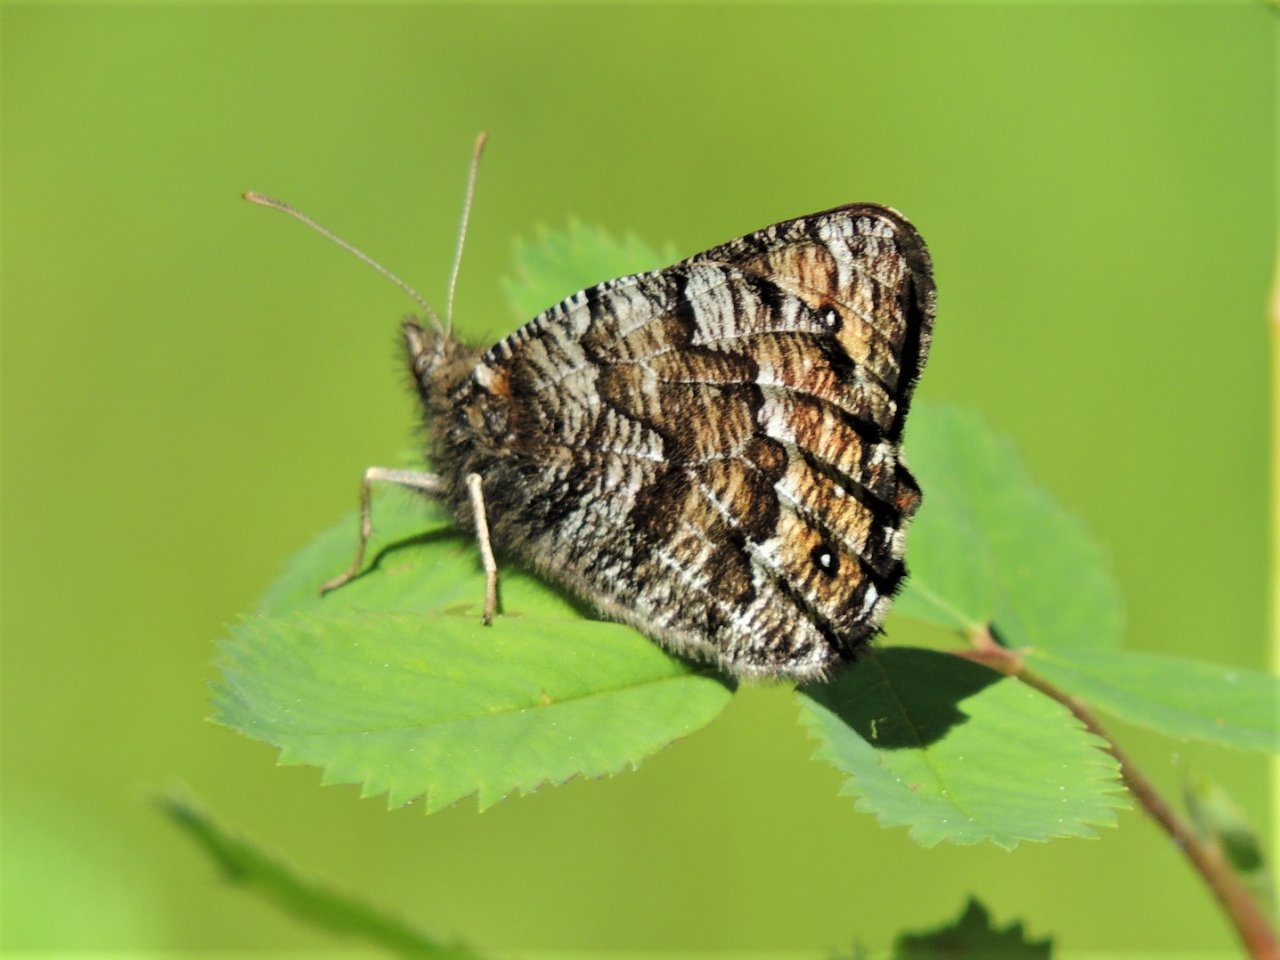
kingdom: Animalia
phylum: Arthropoda
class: Insecta
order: Lepidoptera
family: Nymphalidae
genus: Oeneis
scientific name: Oeneis chryxus
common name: Chryxus Arctic
